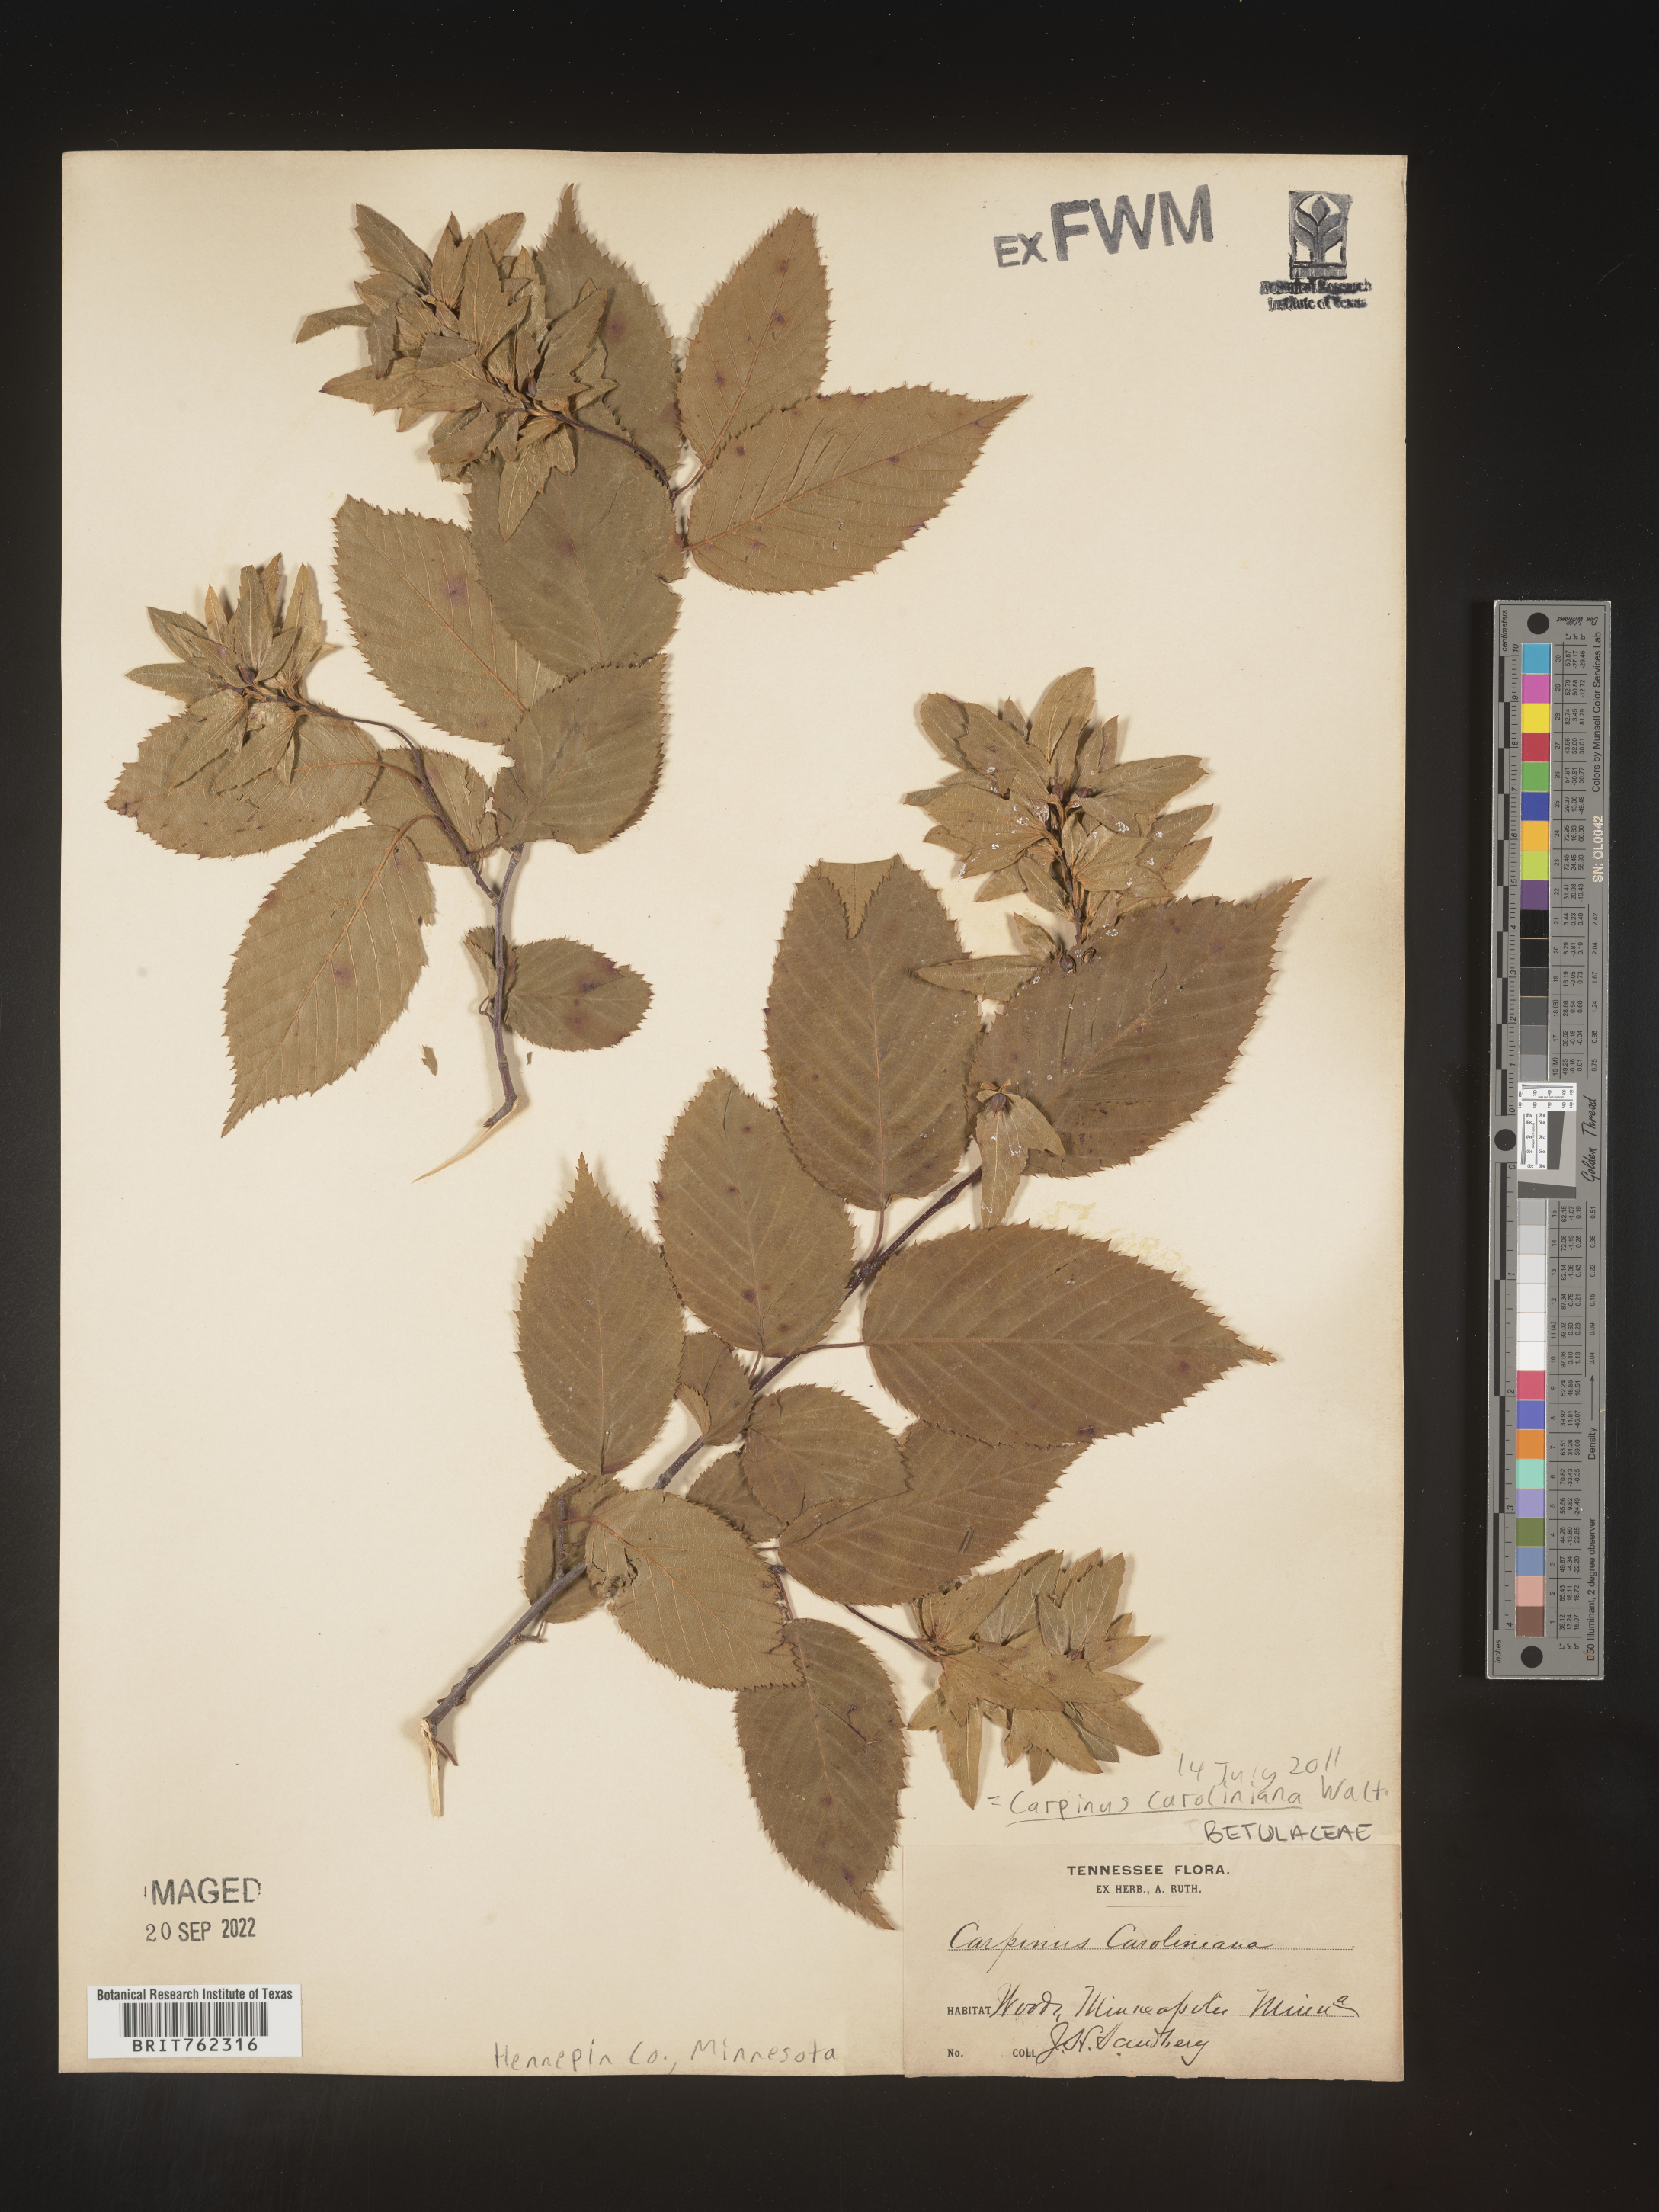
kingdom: Plantae
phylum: Tracheophyta
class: Magnoliopsida
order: Fagales
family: Betulaceae
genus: Carpinus
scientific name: Carpinus caroliniana
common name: American hornbeam
